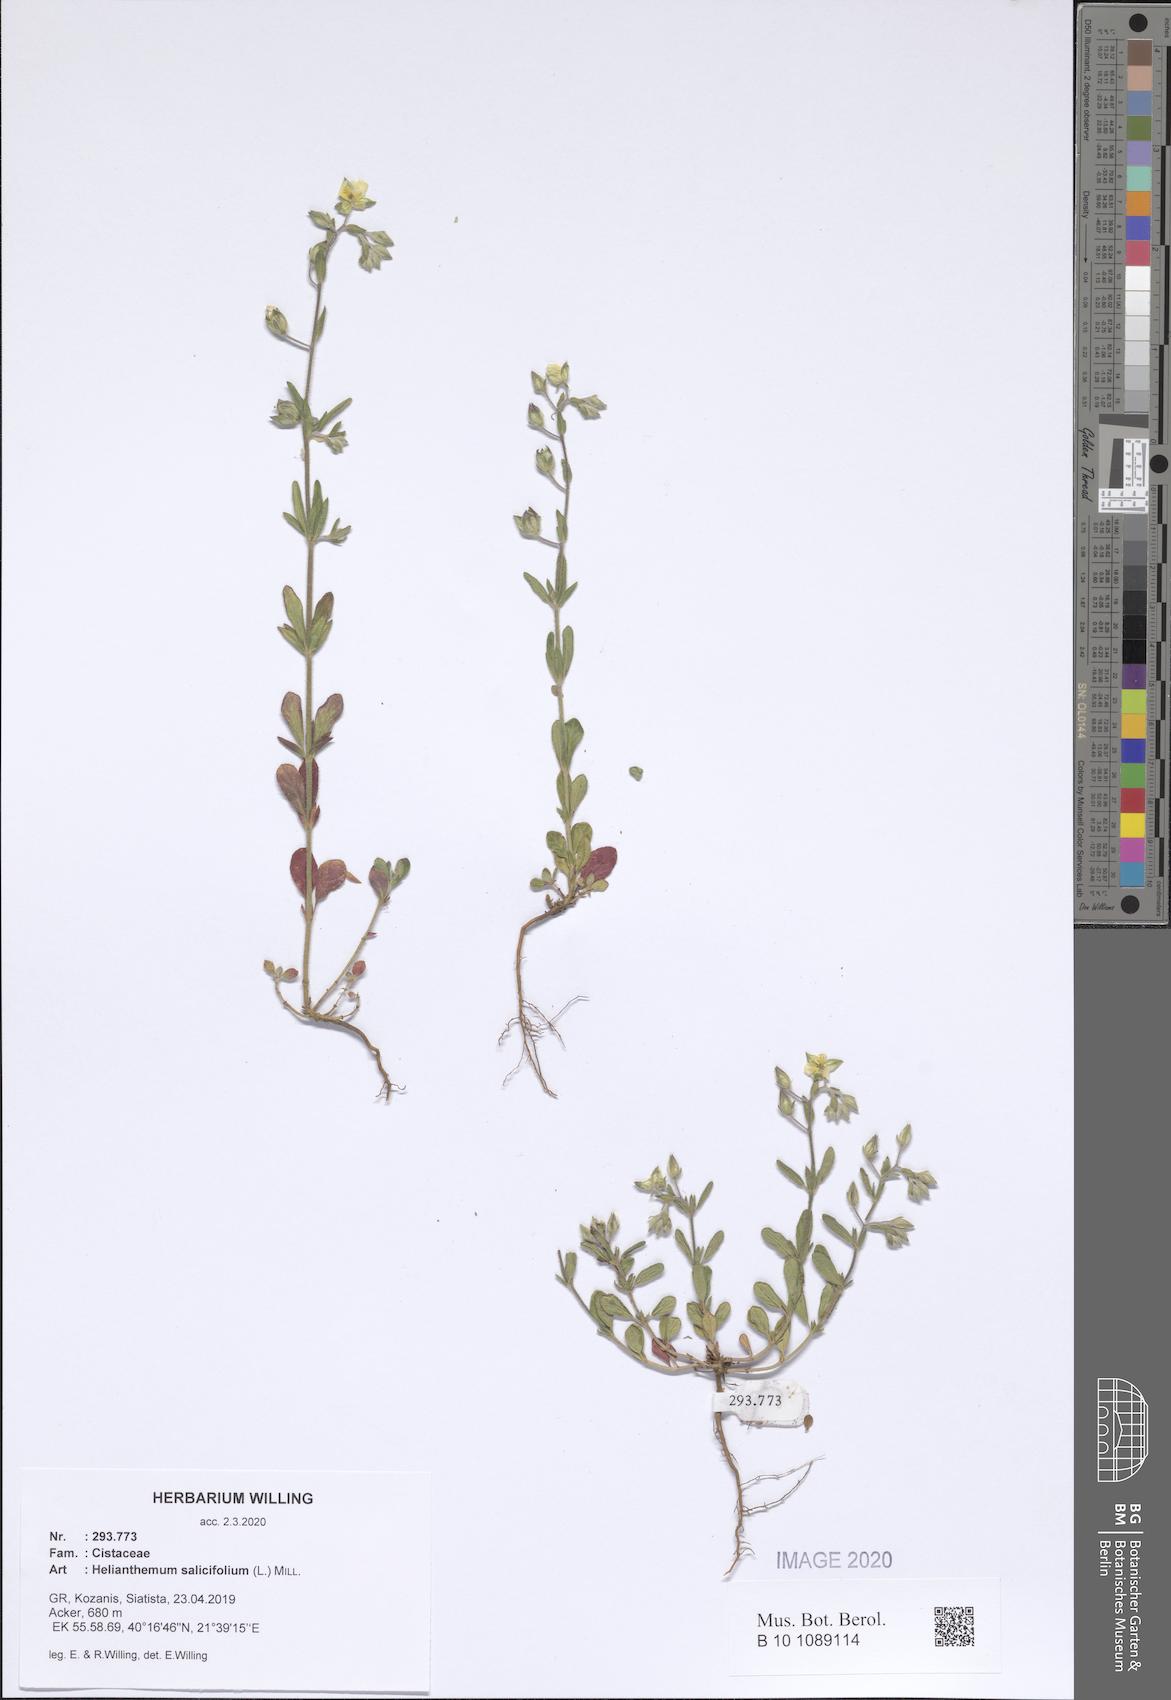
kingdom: Plantae
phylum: Tracheophyta
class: Magnoliopsida
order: Malvales
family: Cistaceae
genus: Helianthemum
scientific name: Helianthemum salicifolium
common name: Willowleaf frostweed
